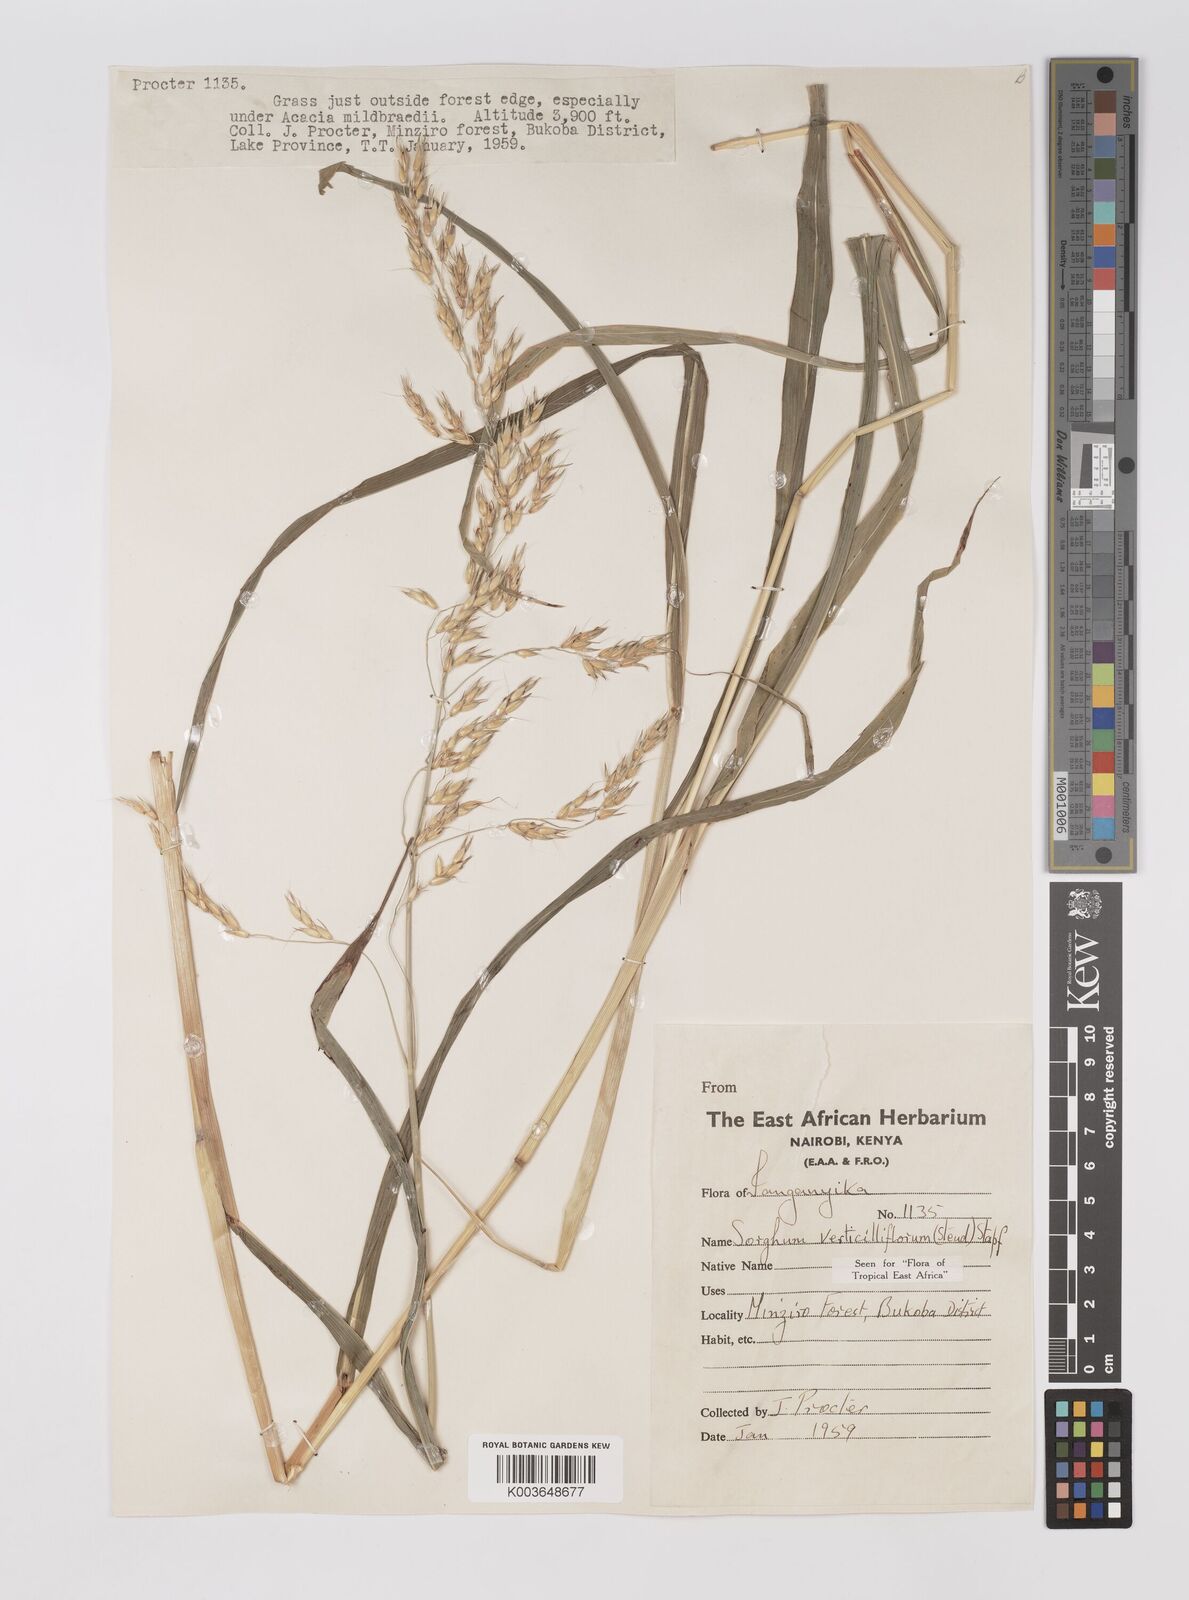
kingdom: Plantae
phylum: Tracheophyta
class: Liliopsida
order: Poales
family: Poaceae
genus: Sorghum
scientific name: Sorghum arundinaceum
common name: Sorghum
